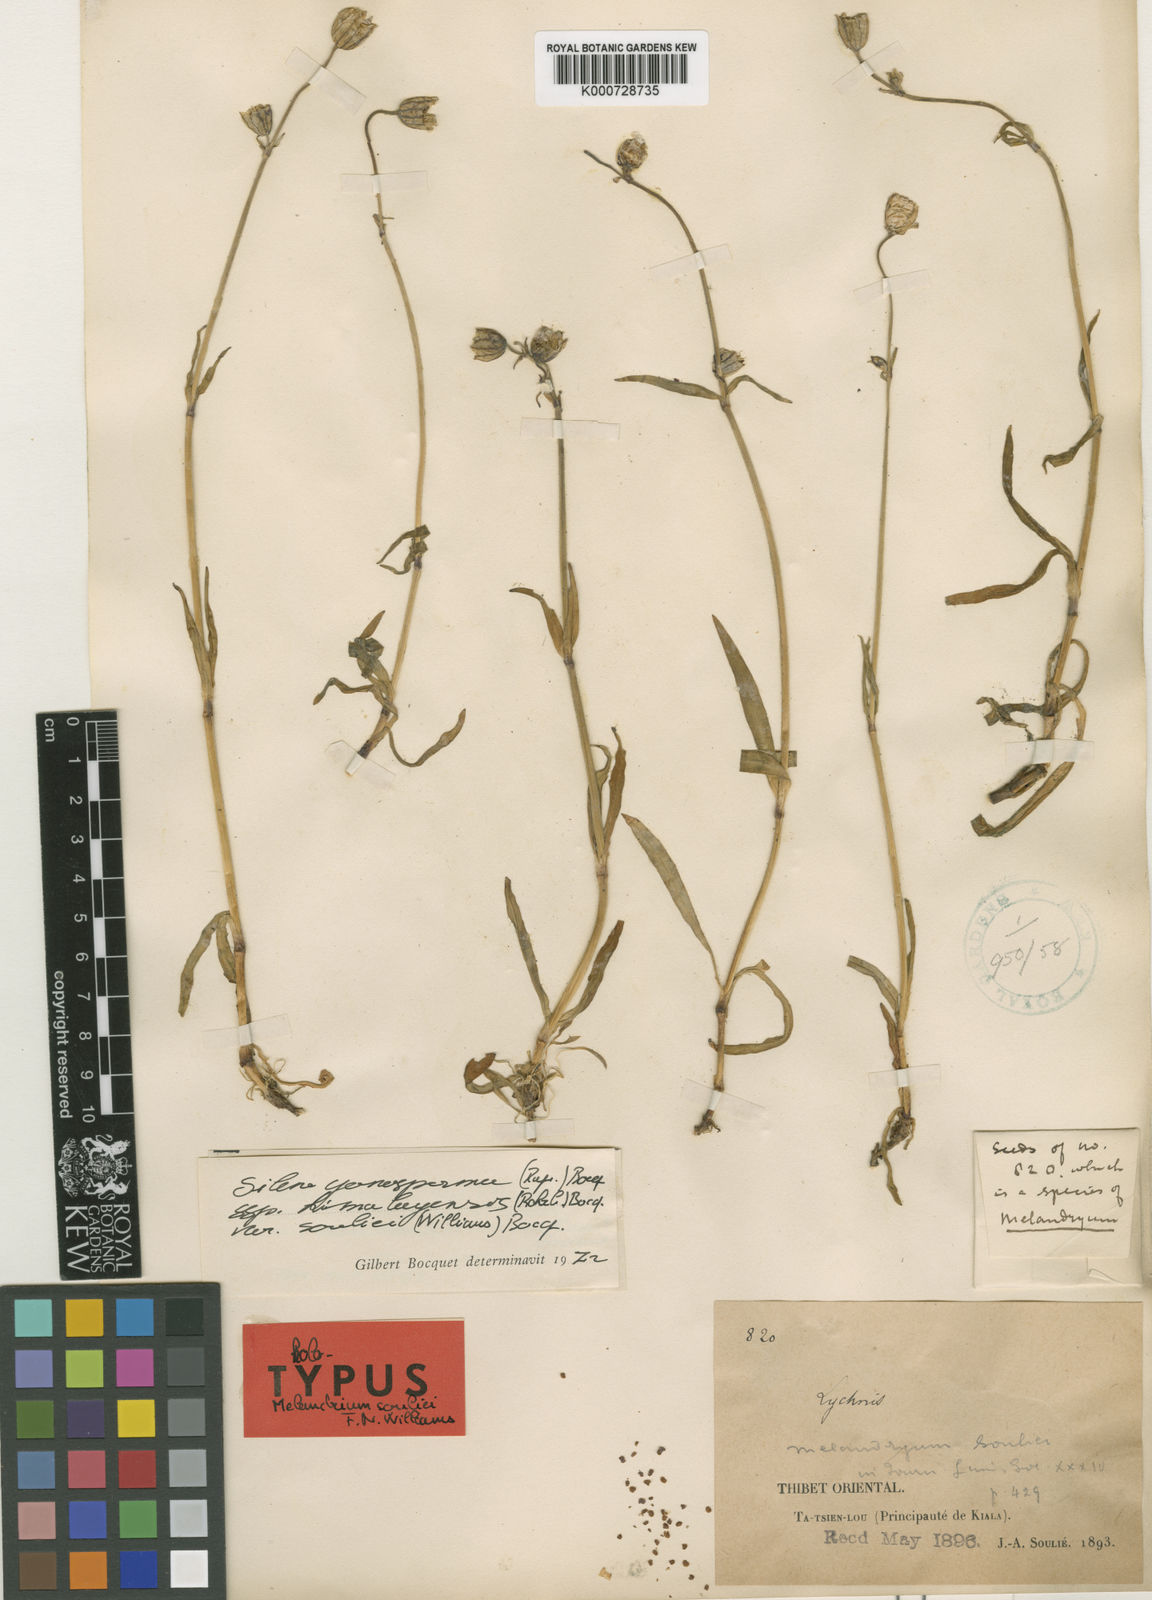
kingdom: Plantae
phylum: Tracheophyta
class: Magnoliopsida
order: Caryophyllales
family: Caryophyllaceae
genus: Silene
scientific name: Silene gonosperma
